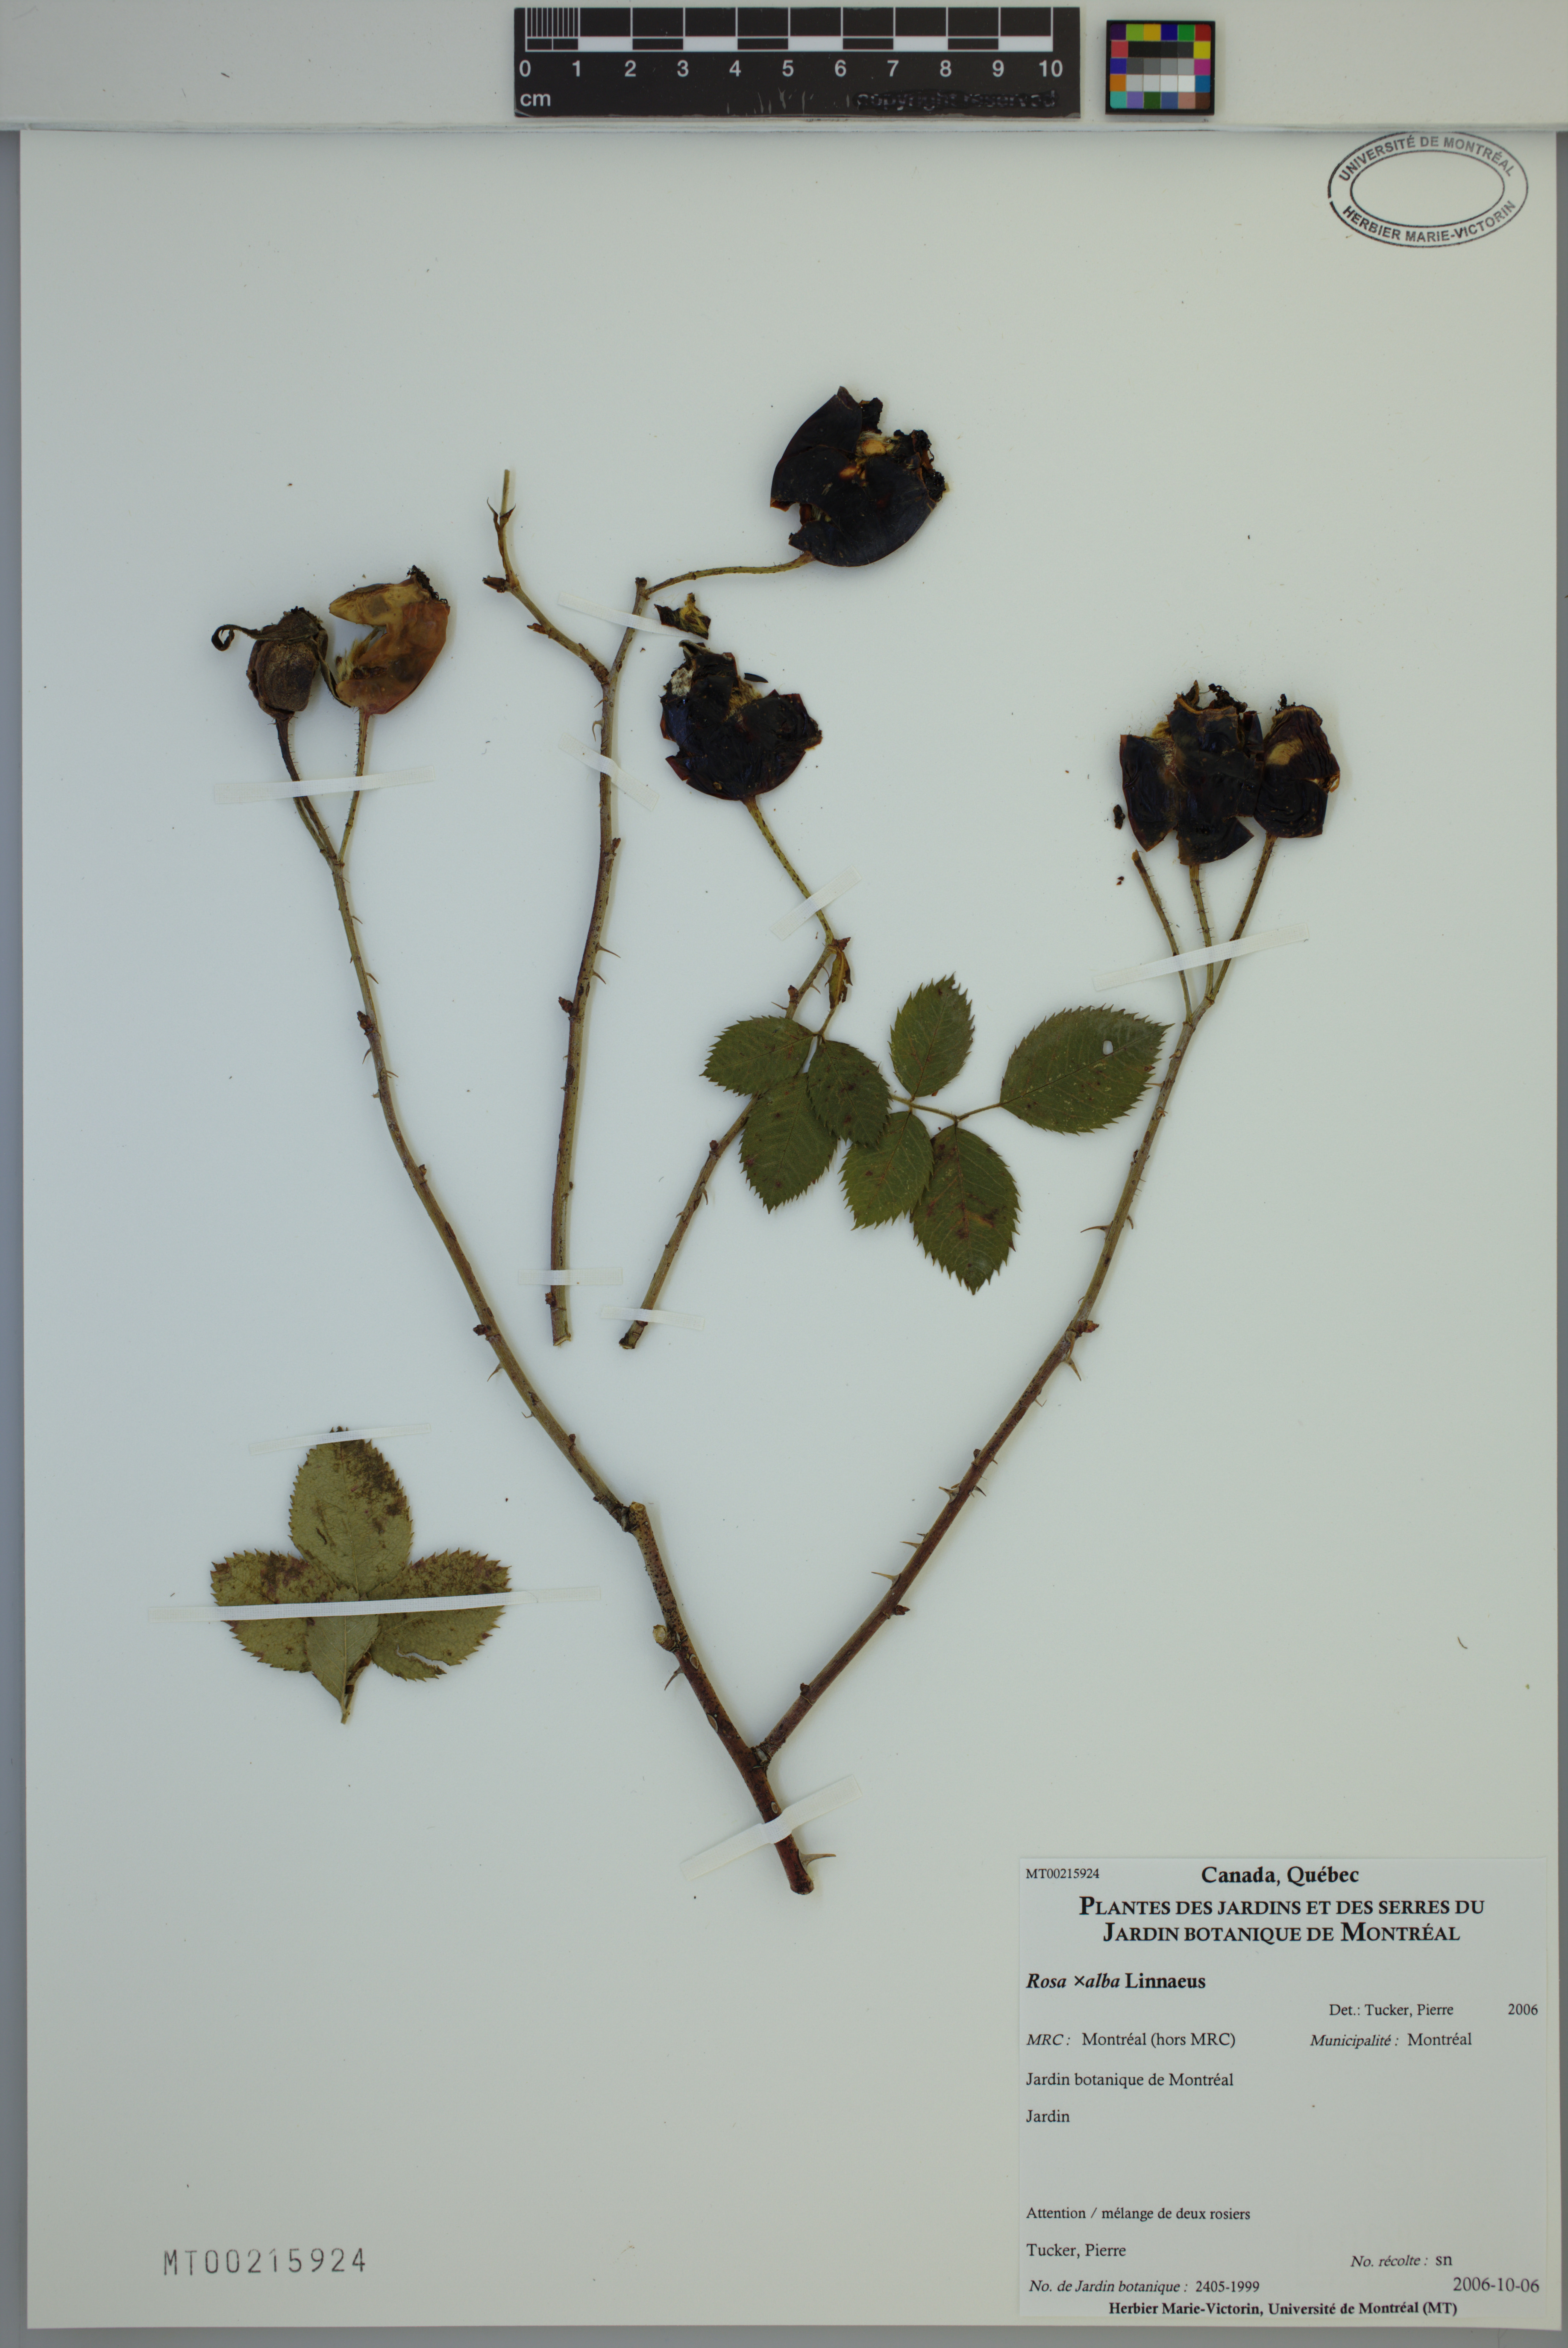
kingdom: Plantae
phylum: Tracheophyta
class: Magnoliopsida
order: Rosales
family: Rosaceae
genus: Rosa
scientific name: Rosa alba
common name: White rose
